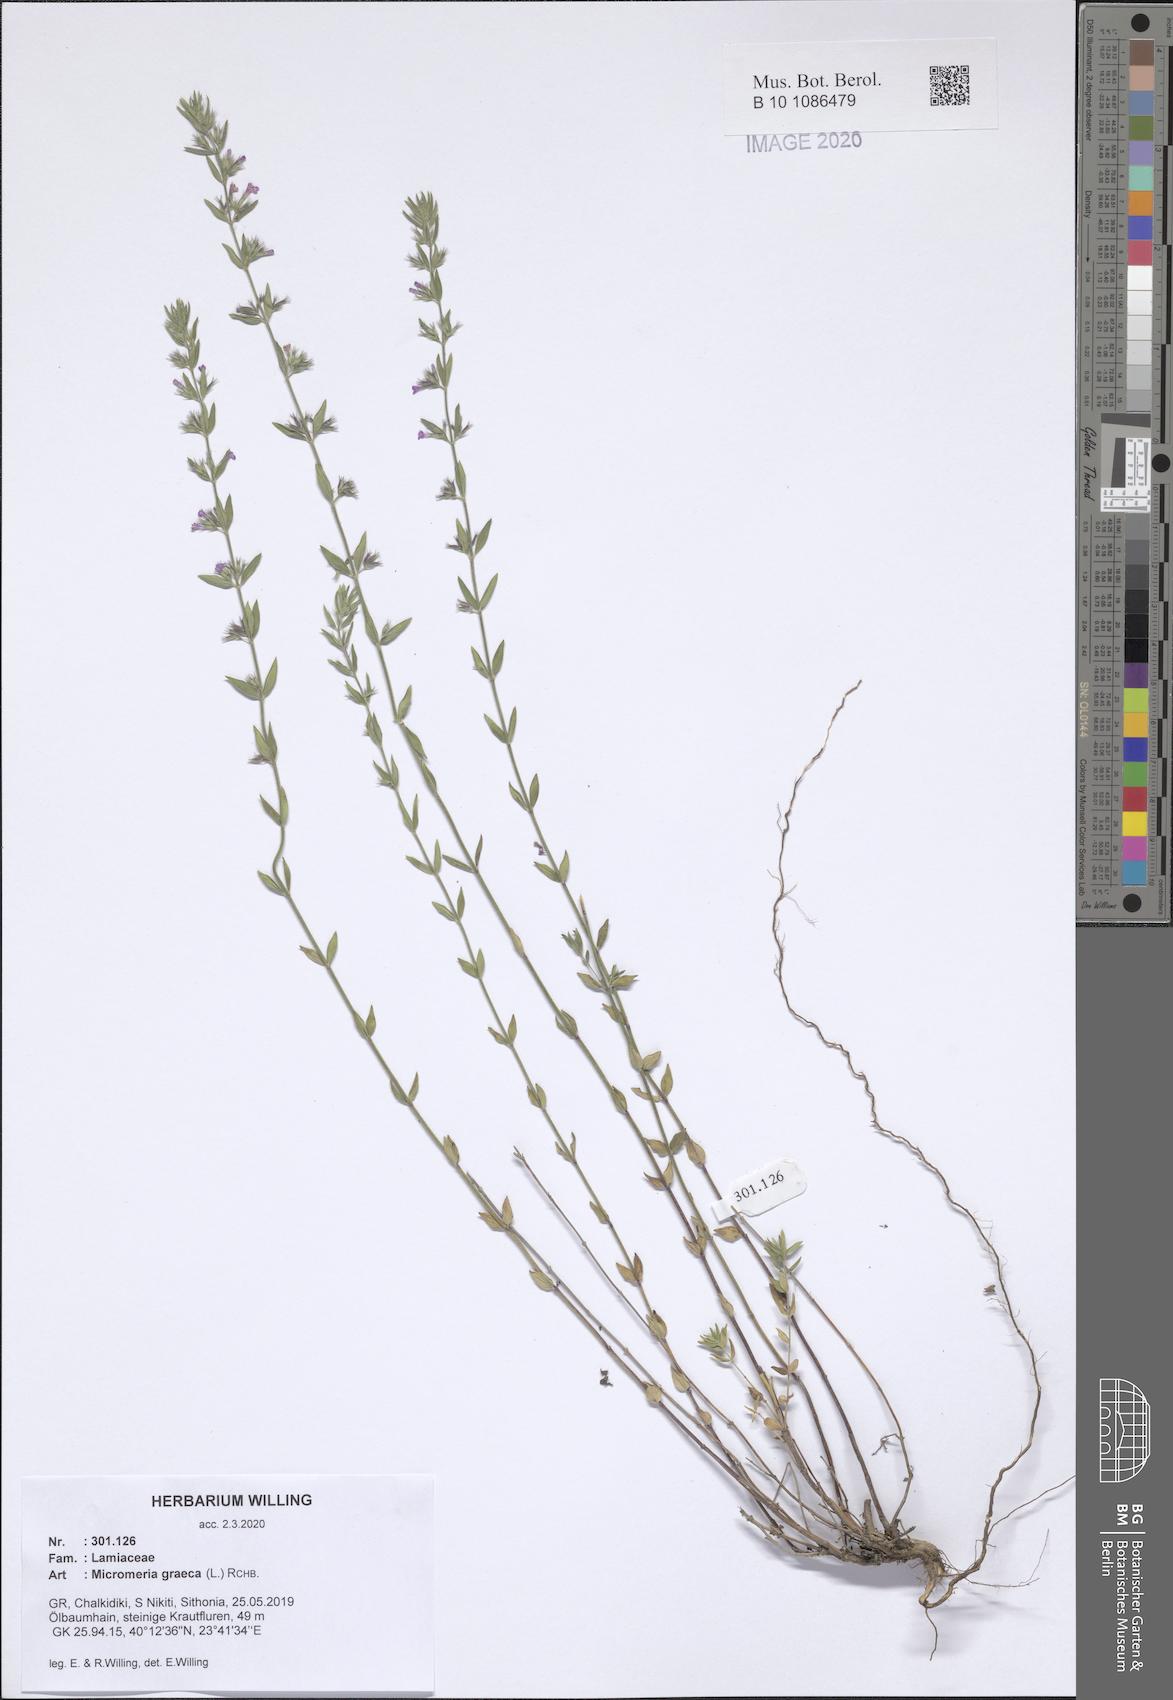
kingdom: Plantae
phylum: Tracheophyta
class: Magnoliopsida
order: Lamiales
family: Lamiaceae
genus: Micromeria
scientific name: Micromeria graeca
